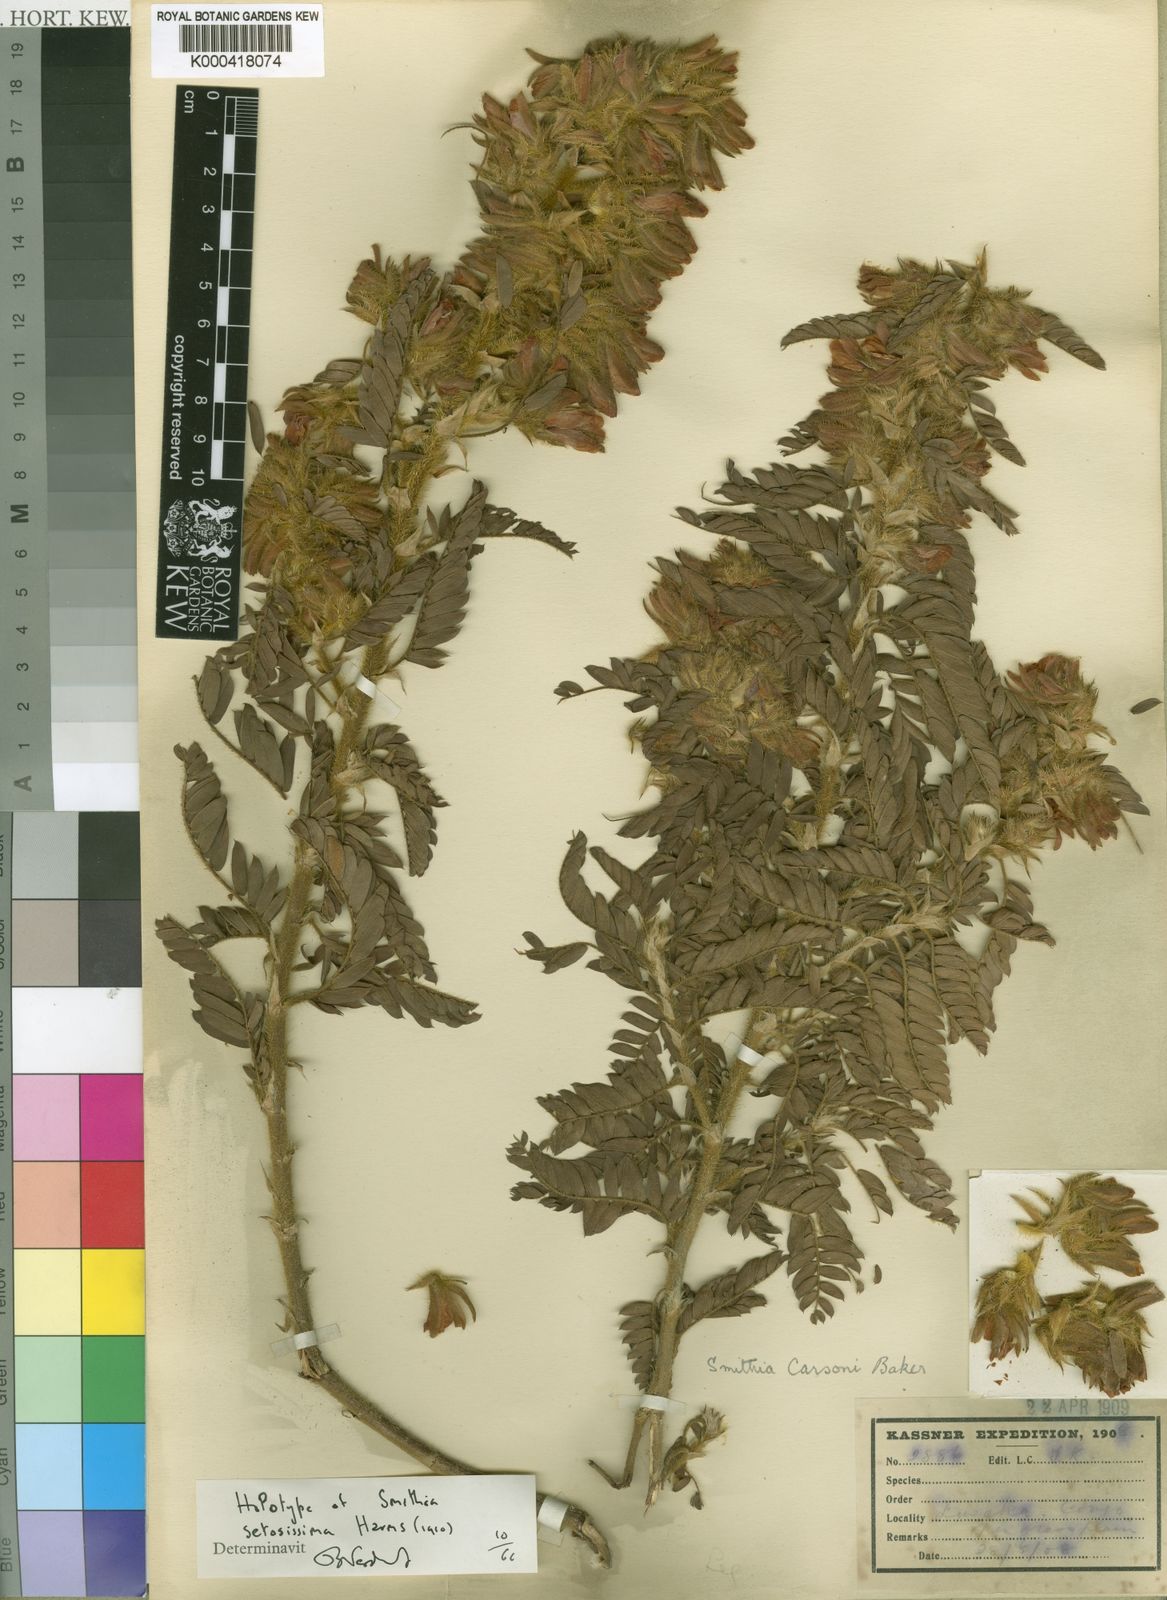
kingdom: Plantae
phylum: Tracheophyta
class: Magnoliopsida
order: Fabales
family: Fabaceae
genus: Kotschya
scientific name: Kotschya carsonii
